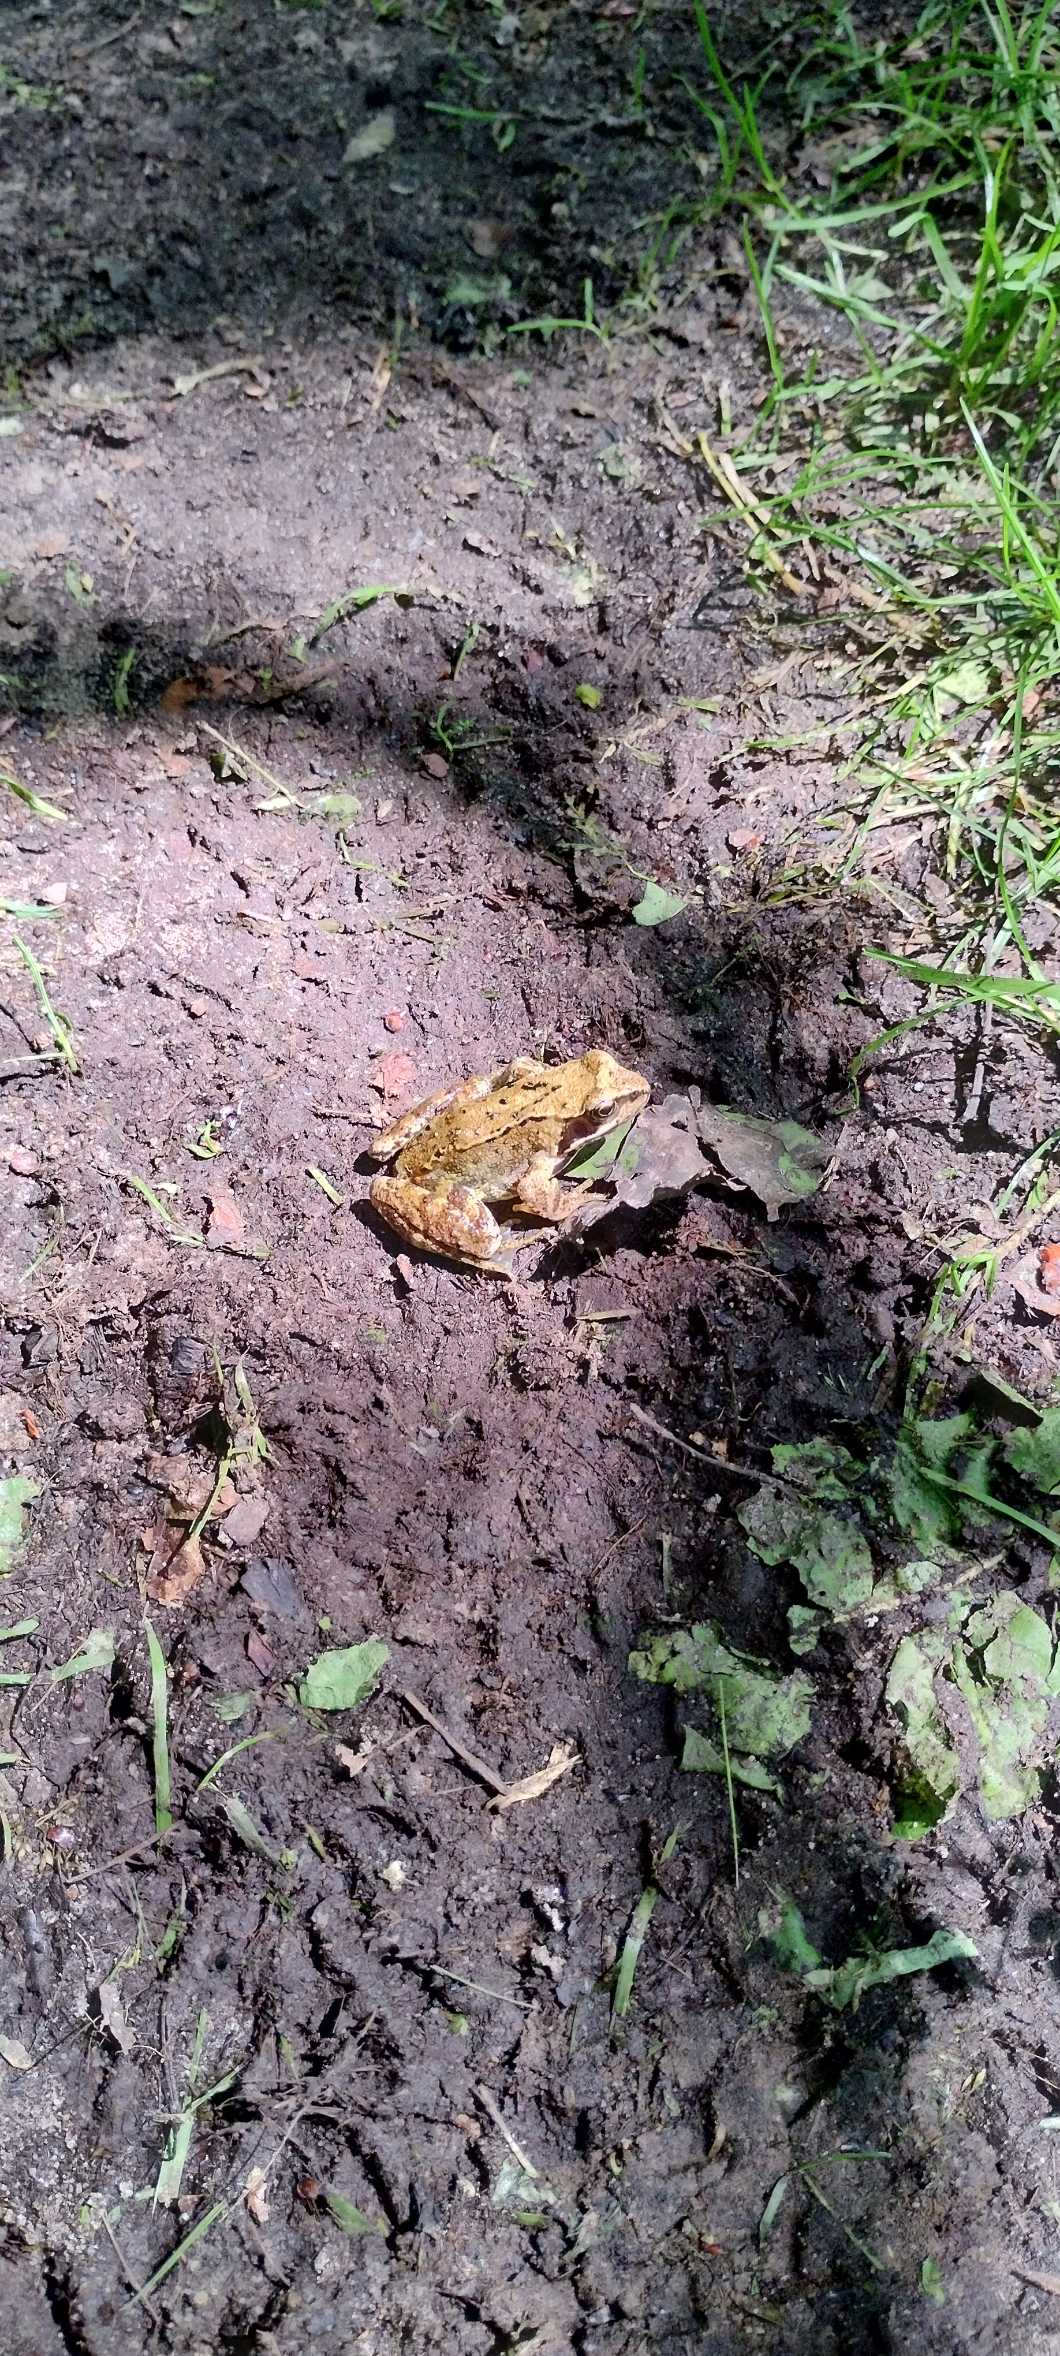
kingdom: Animalia
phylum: Chordata
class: Amphibia
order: Anura
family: Ranidae
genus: Rana
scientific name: Rana temporaria
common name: Butsnudet frø
